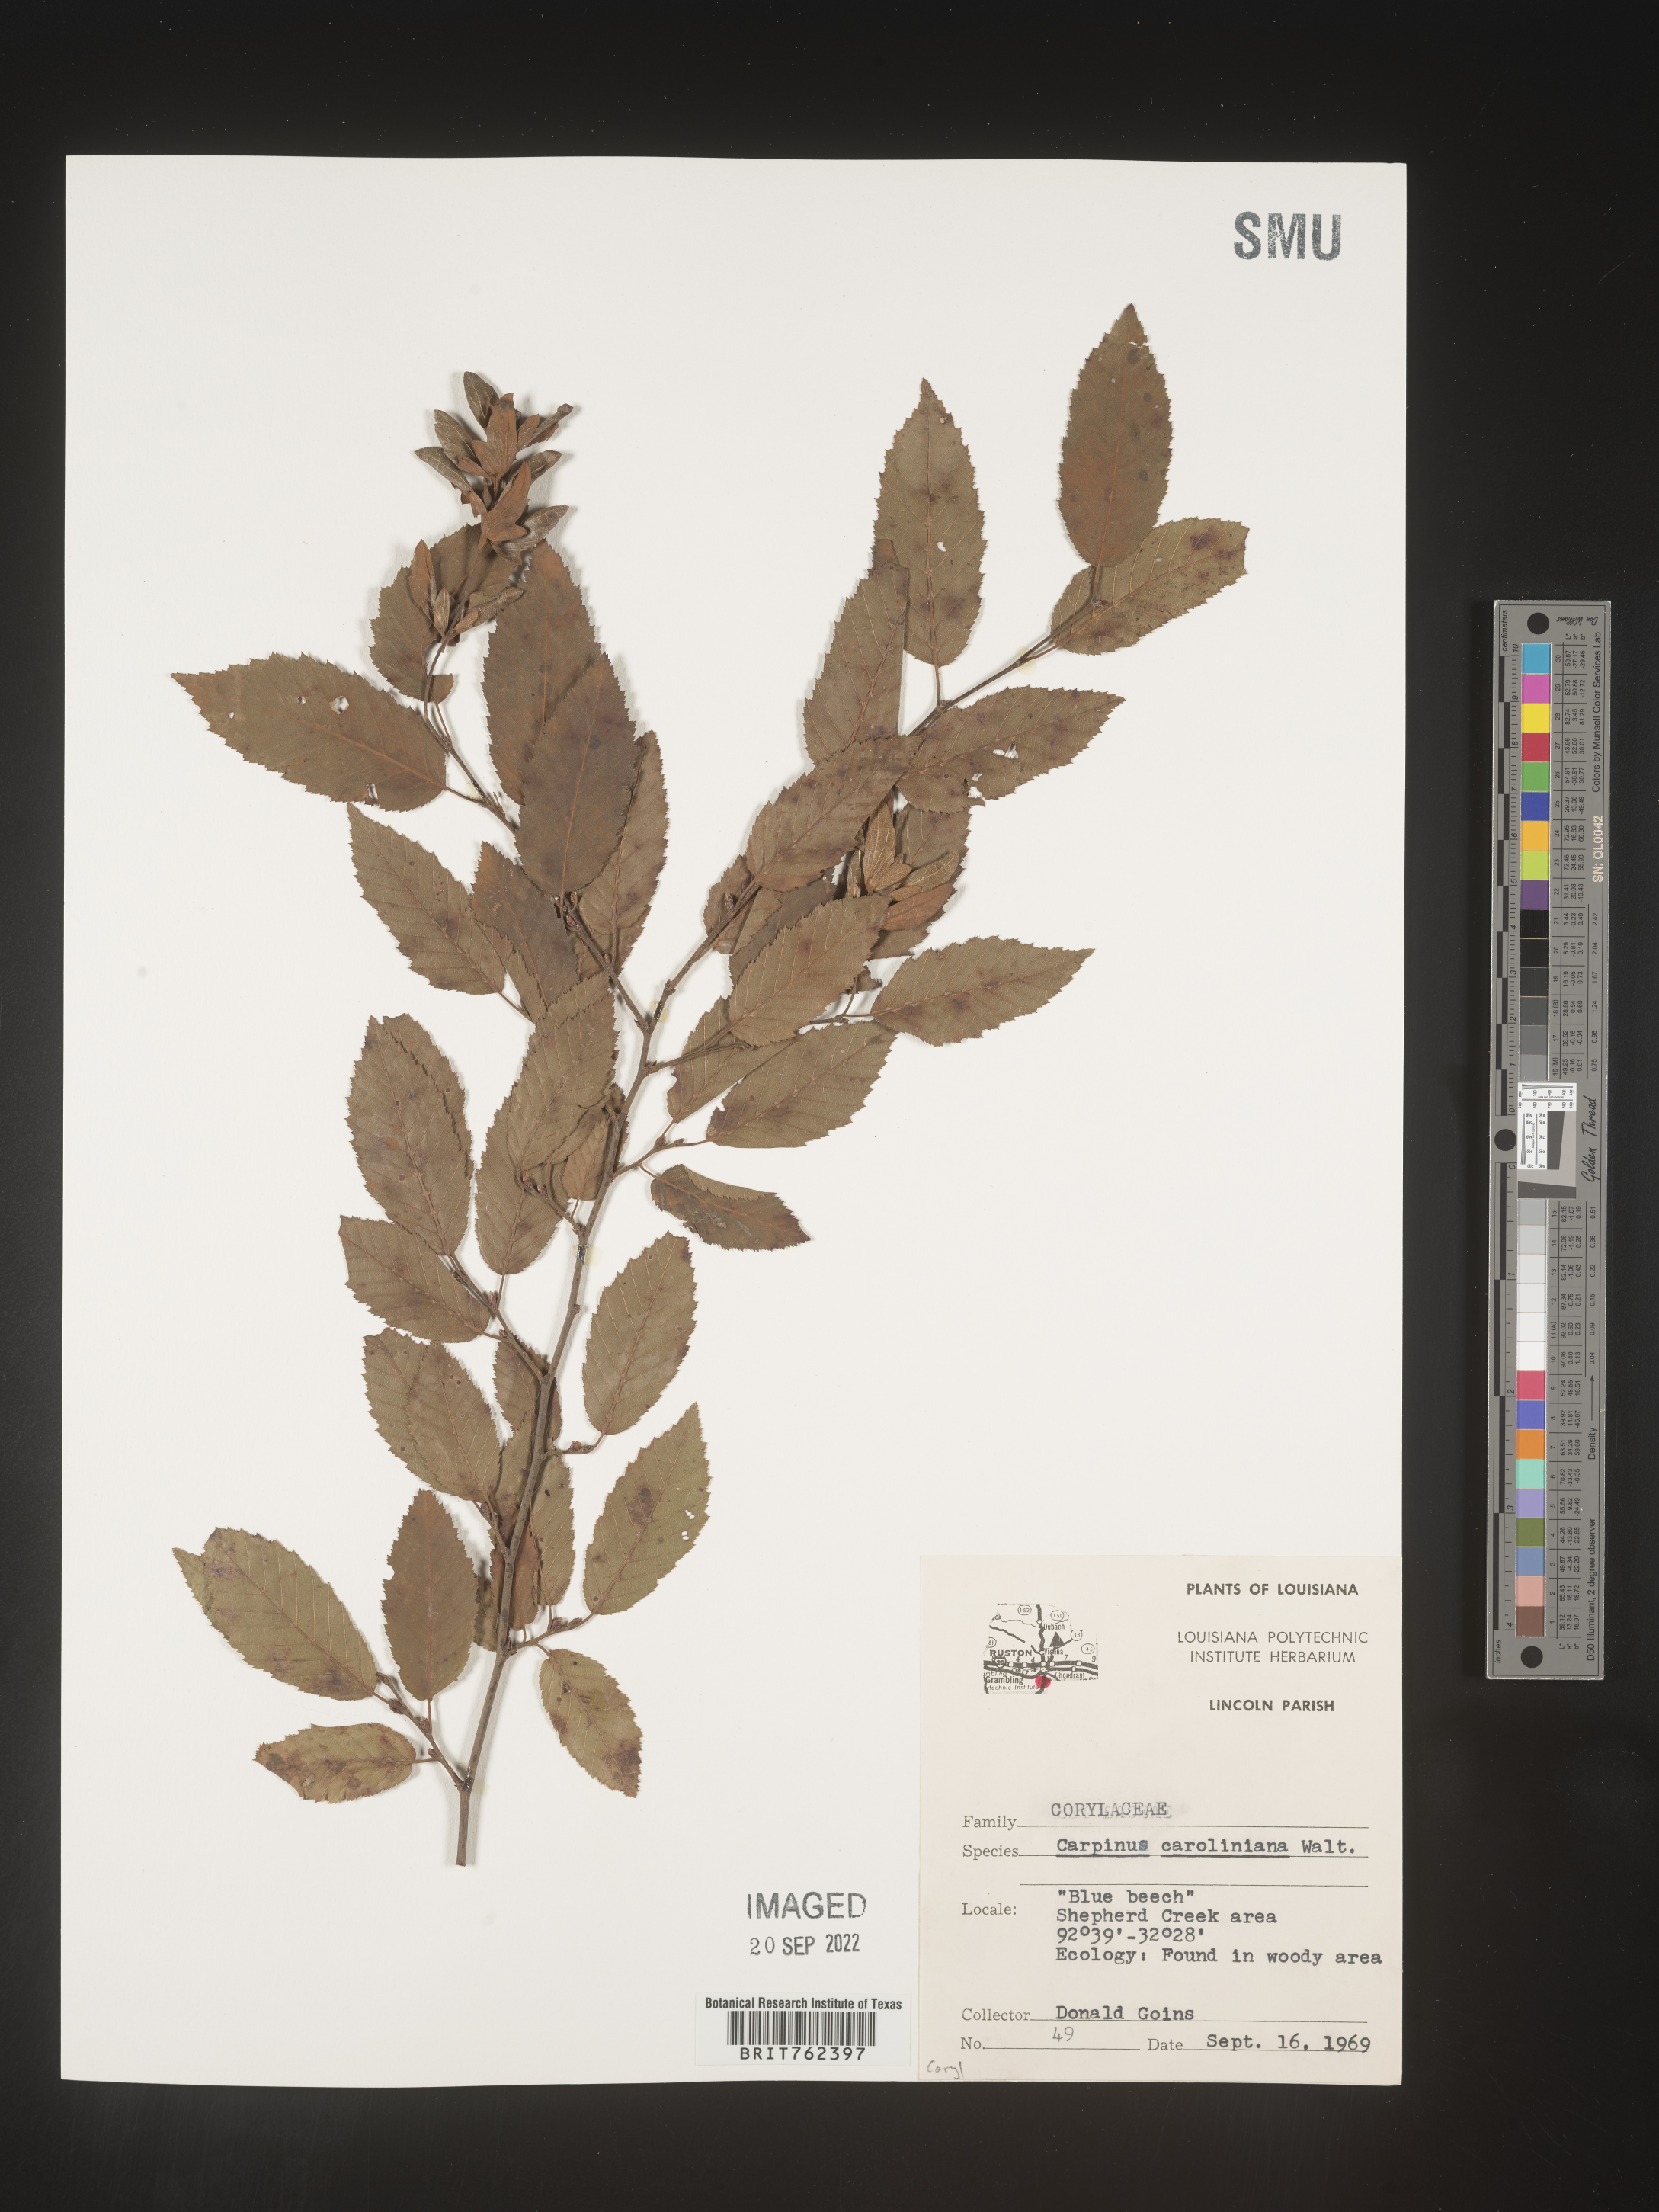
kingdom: Plantae
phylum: Tracheophyta
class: Magnoliopsida
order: Fagales
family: Betulaceae
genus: Carpinus
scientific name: Carpinus caroliniana
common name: American hornbeam
